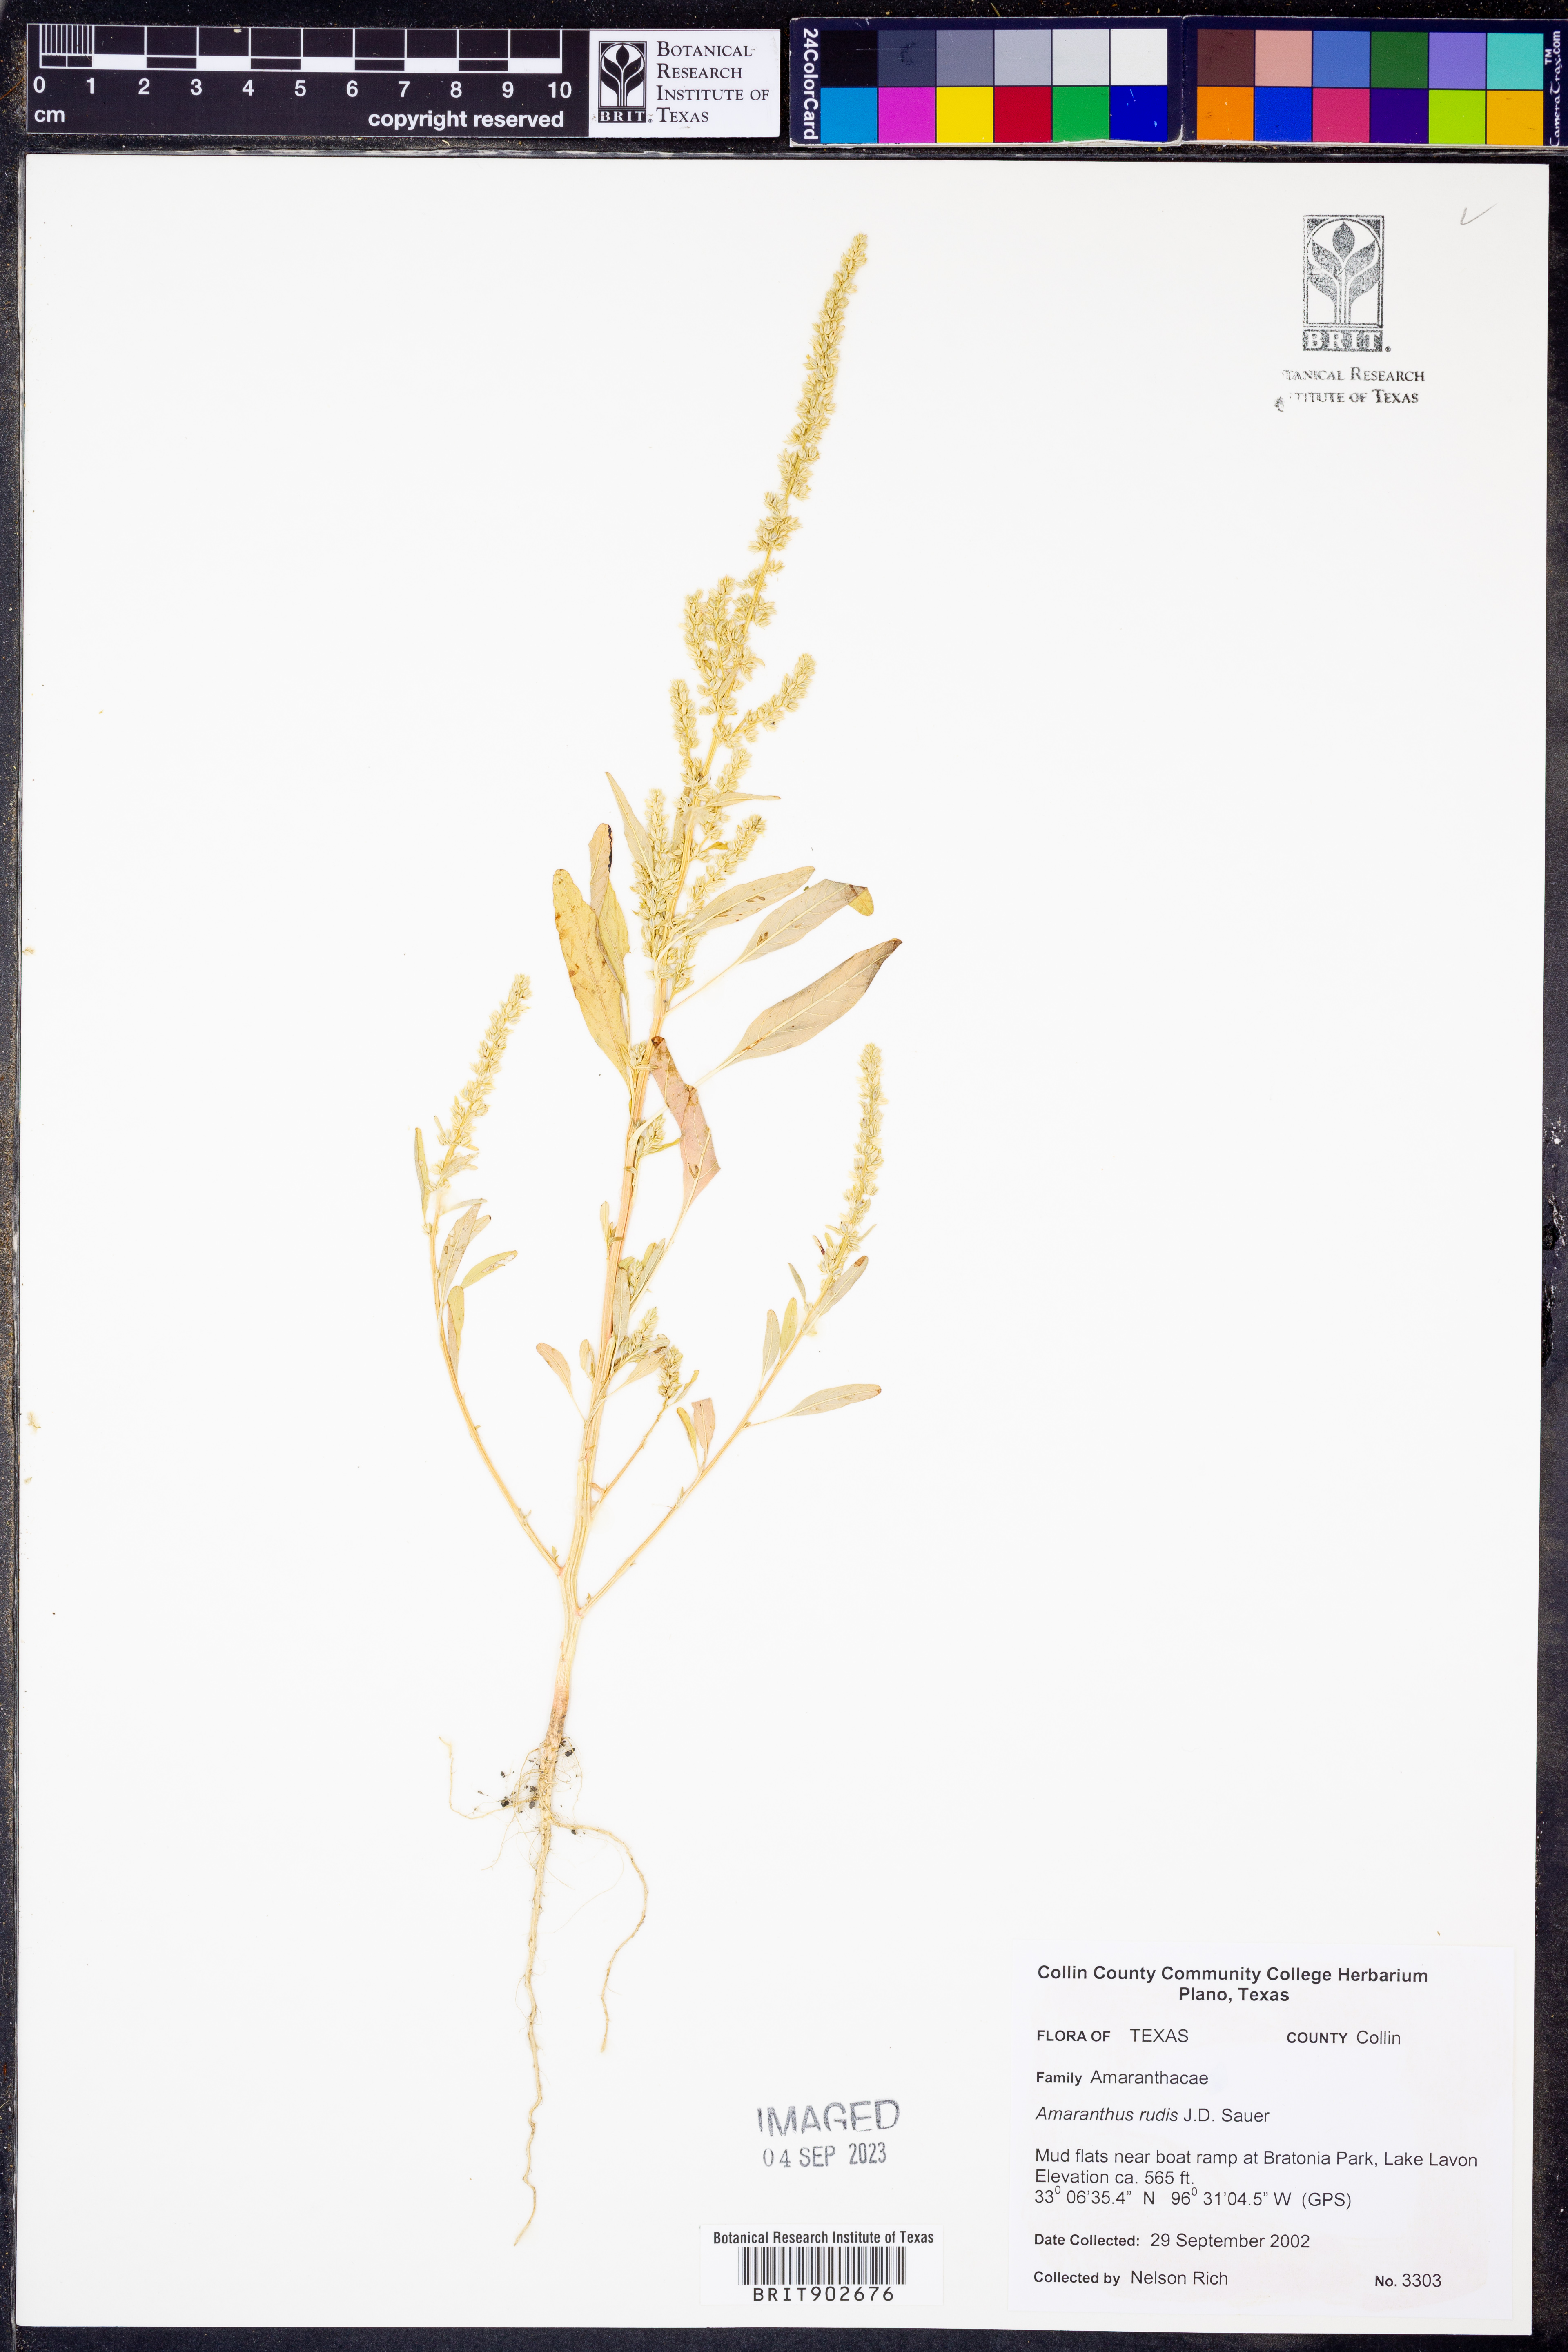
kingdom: Plantae
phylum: Tracheophyta
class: Magnoliopsida
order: Caryophyllales
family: Amaranthaceae
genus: Amaranthus
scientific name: Amaranthus tuberculatus
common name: Rough-fruit amaranth
